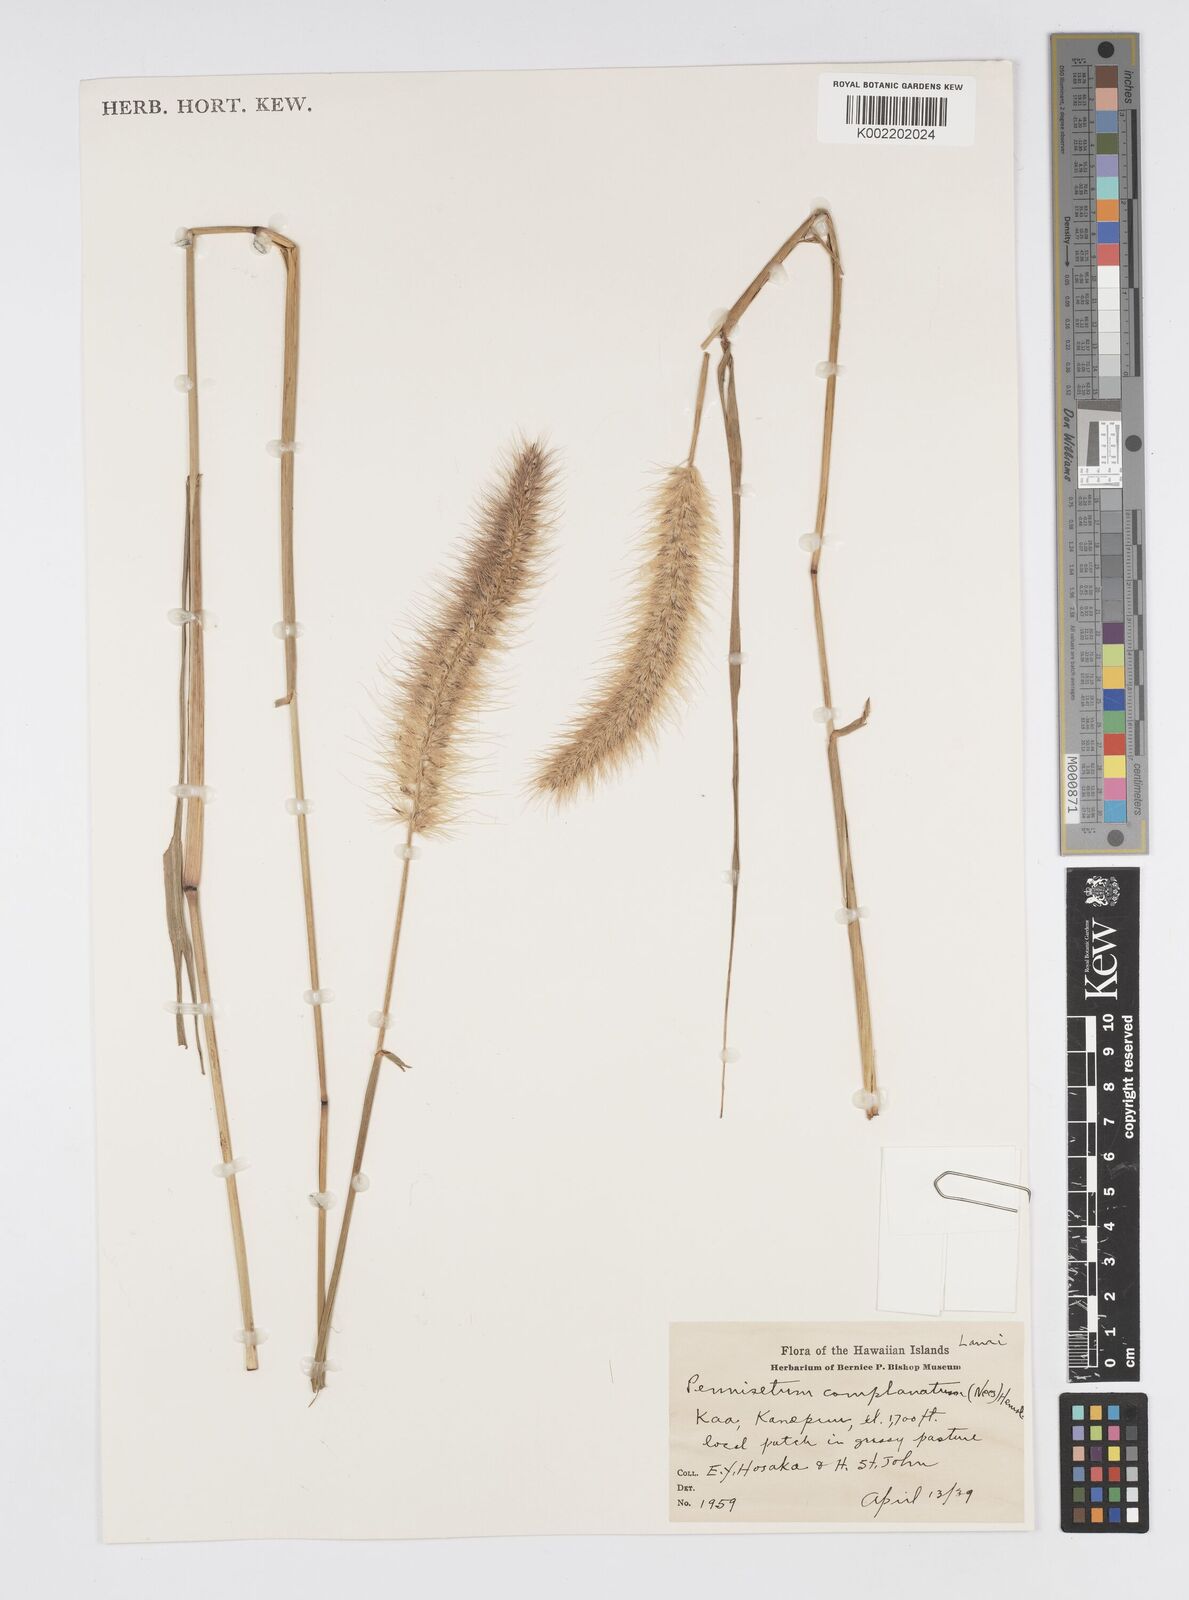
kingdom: Plantae
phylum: Tracheophyta
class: Liliopsida
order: Poales
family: Poaceae
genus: Cenchrus
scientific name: Cenchrus complanatus
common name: Nicaraguan fountaingrass
